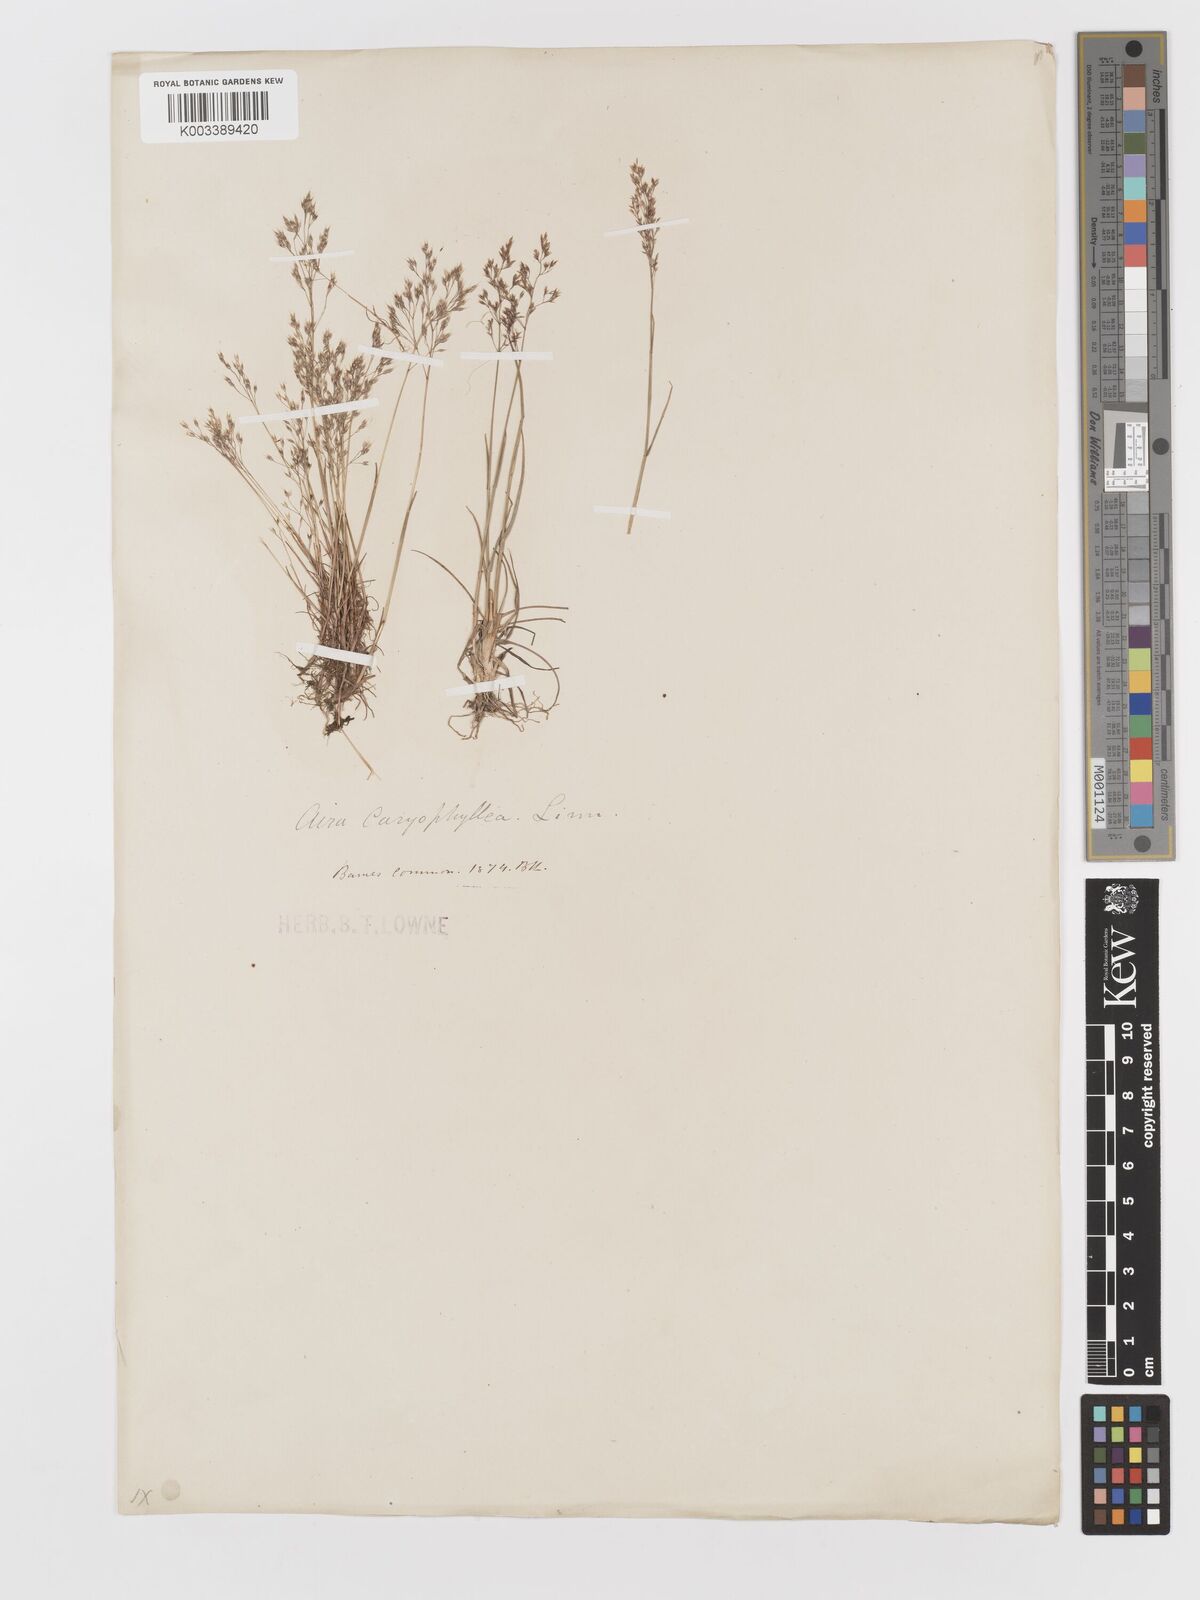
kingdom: Plantae
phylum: Tracheophyta
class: Liliopsida
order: Poales
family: Poaceae
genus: Aira
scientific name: Aira caryophyllea
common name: Silver hairgrass
